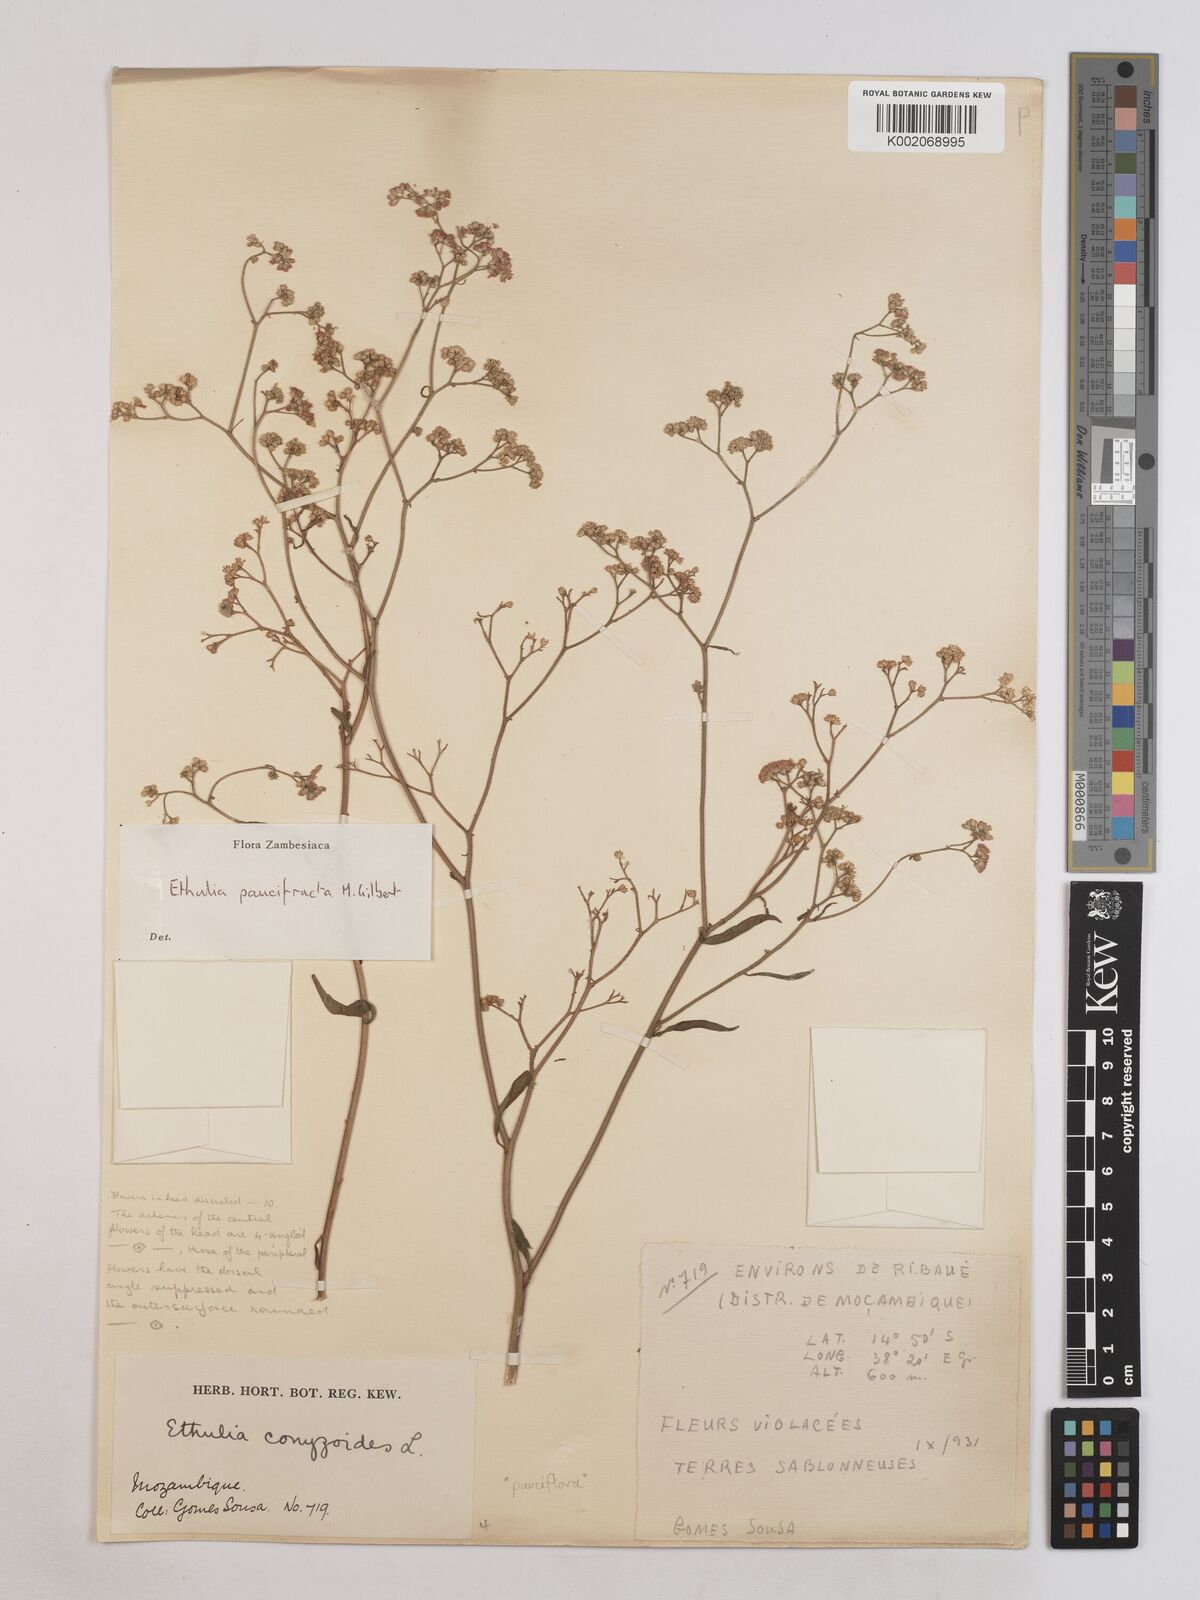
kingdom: Plantae
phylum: Tracheophyta
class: Magnoliopsida
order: Asterales
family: Asteraceae
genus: Ethulia
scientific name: Ethulia paucifructa
